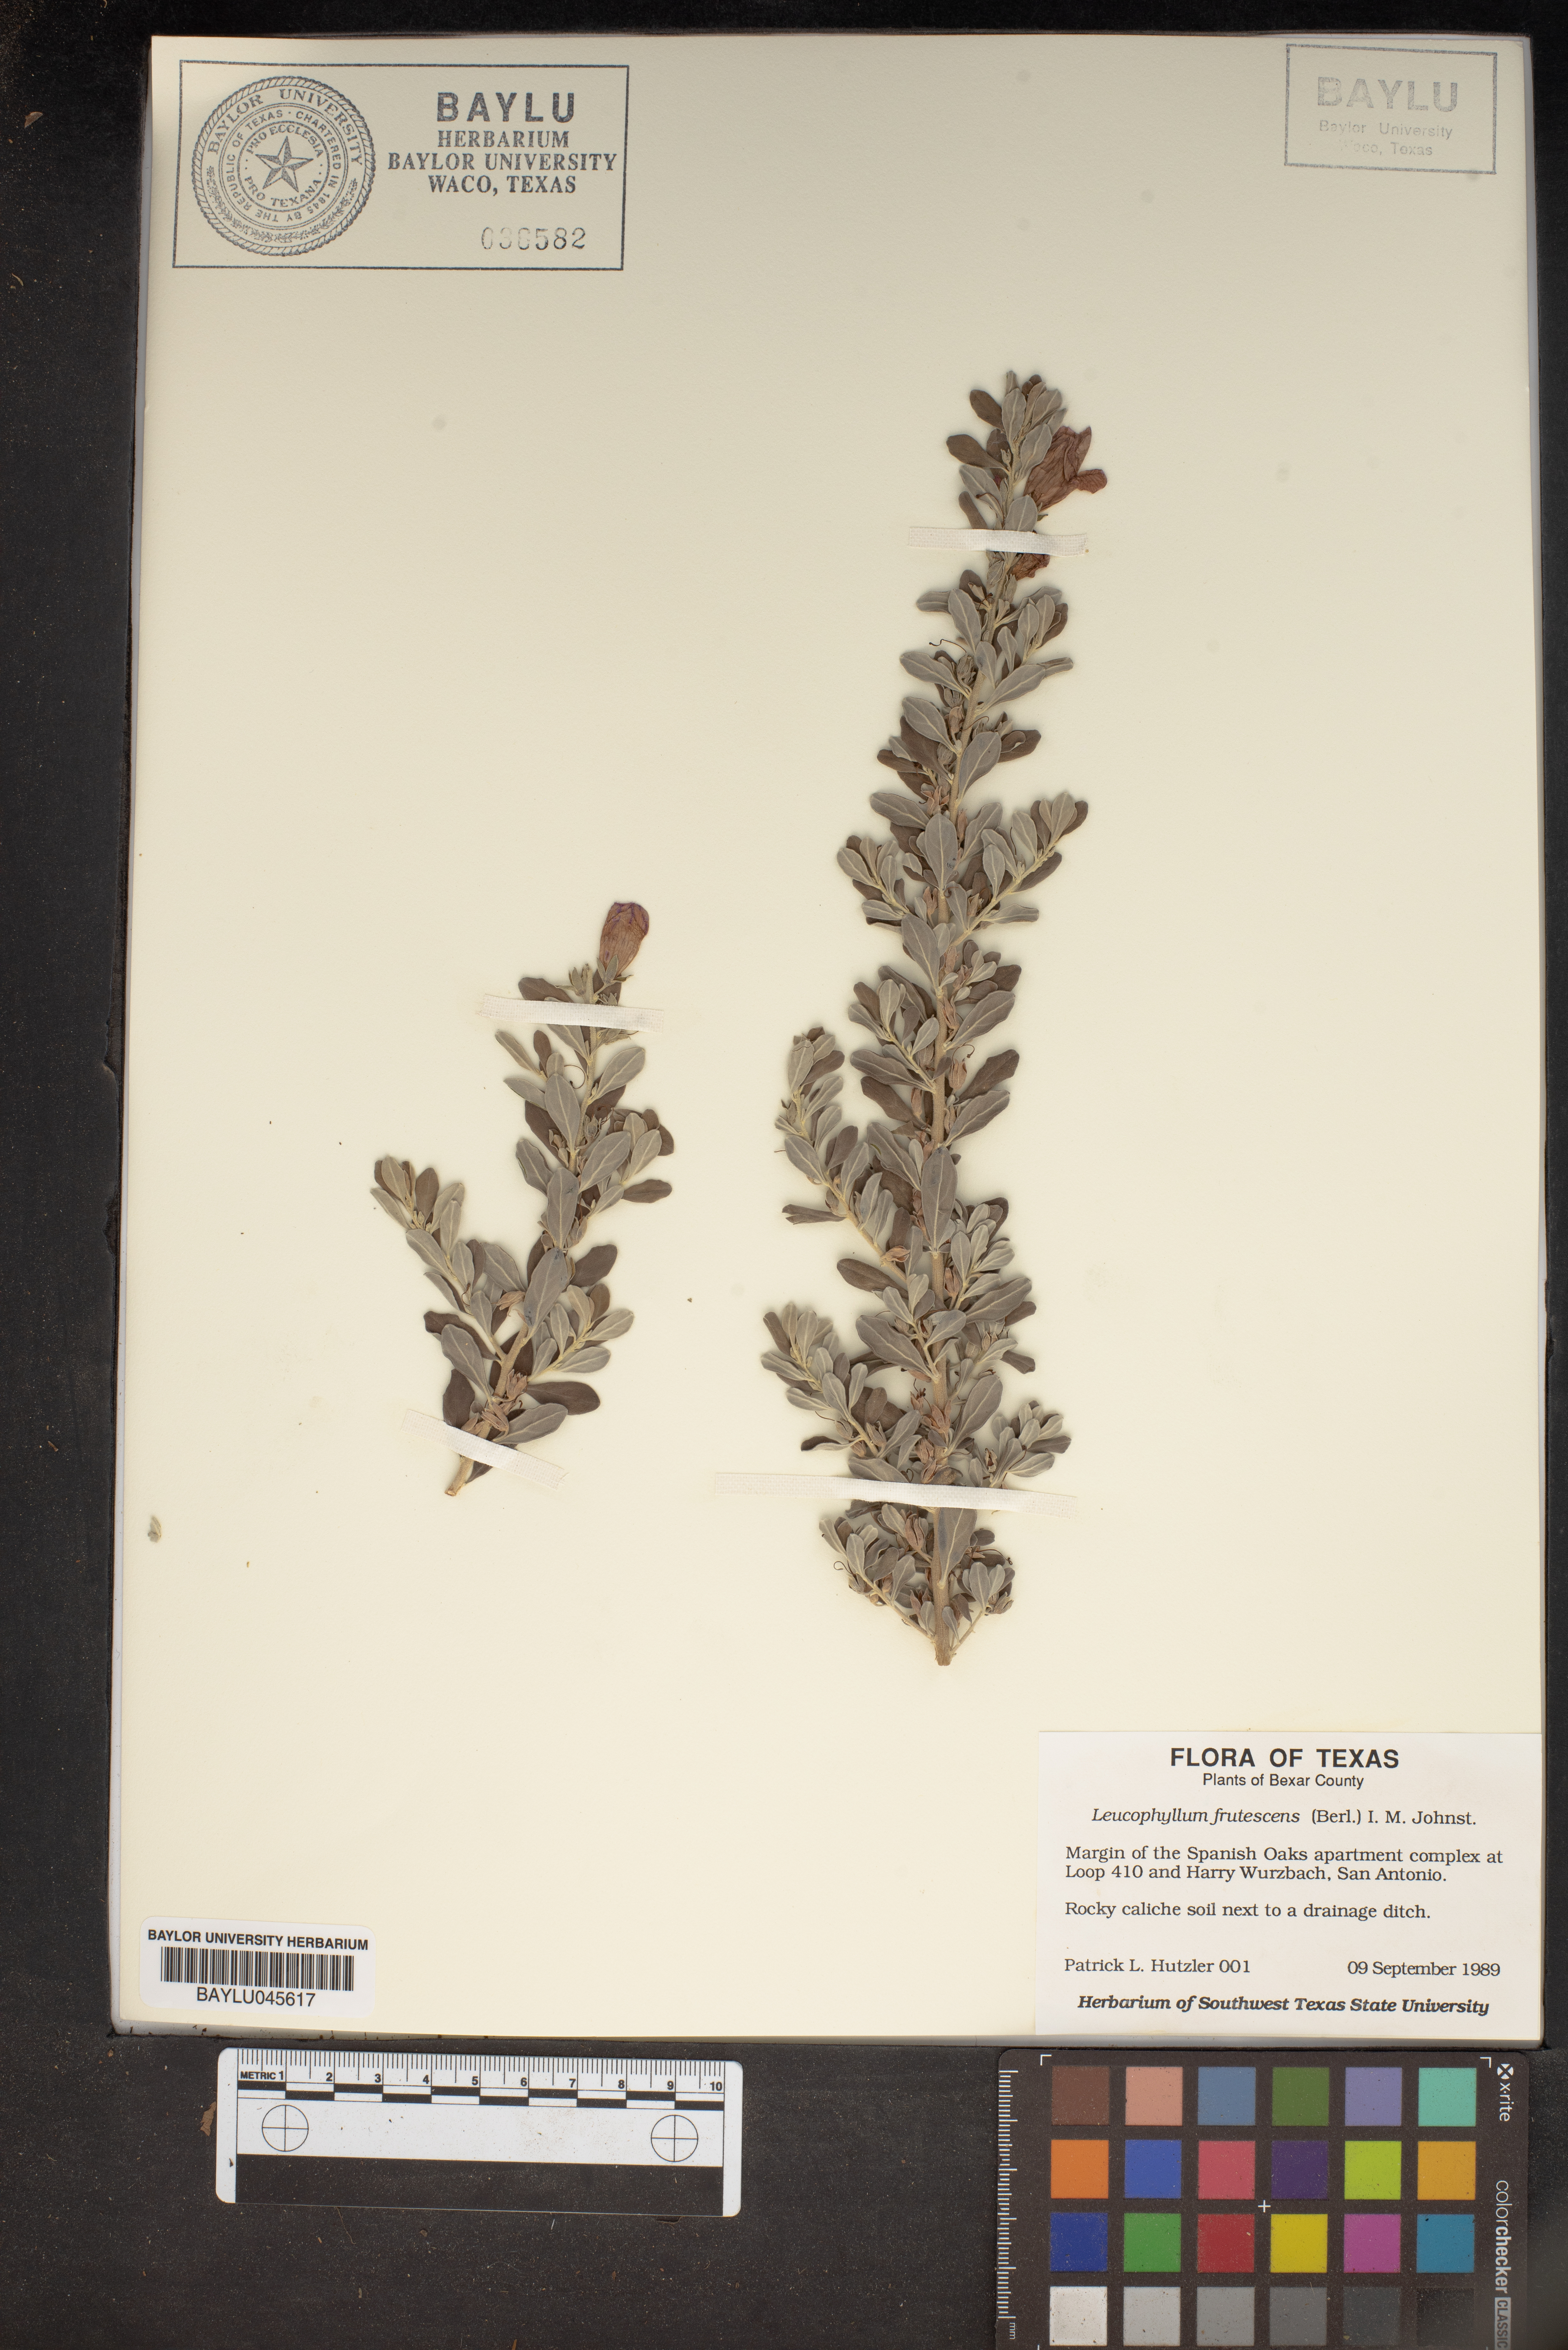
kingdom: Plantae
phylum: Tracheophyta
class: Magnoliopsida
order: Lamiales
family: Scrophulariaceae
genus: Leucophyllum
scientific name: Leucophyllum frutescens
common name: Texas silverleaf
